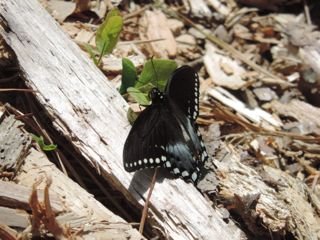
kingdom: Animalia
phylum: Arthropoda
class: Insecta
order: Lepidoptera
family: Papilionidae
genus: Pterourus
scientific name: Pterourus troilus
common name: Spicebush Swallowtail
